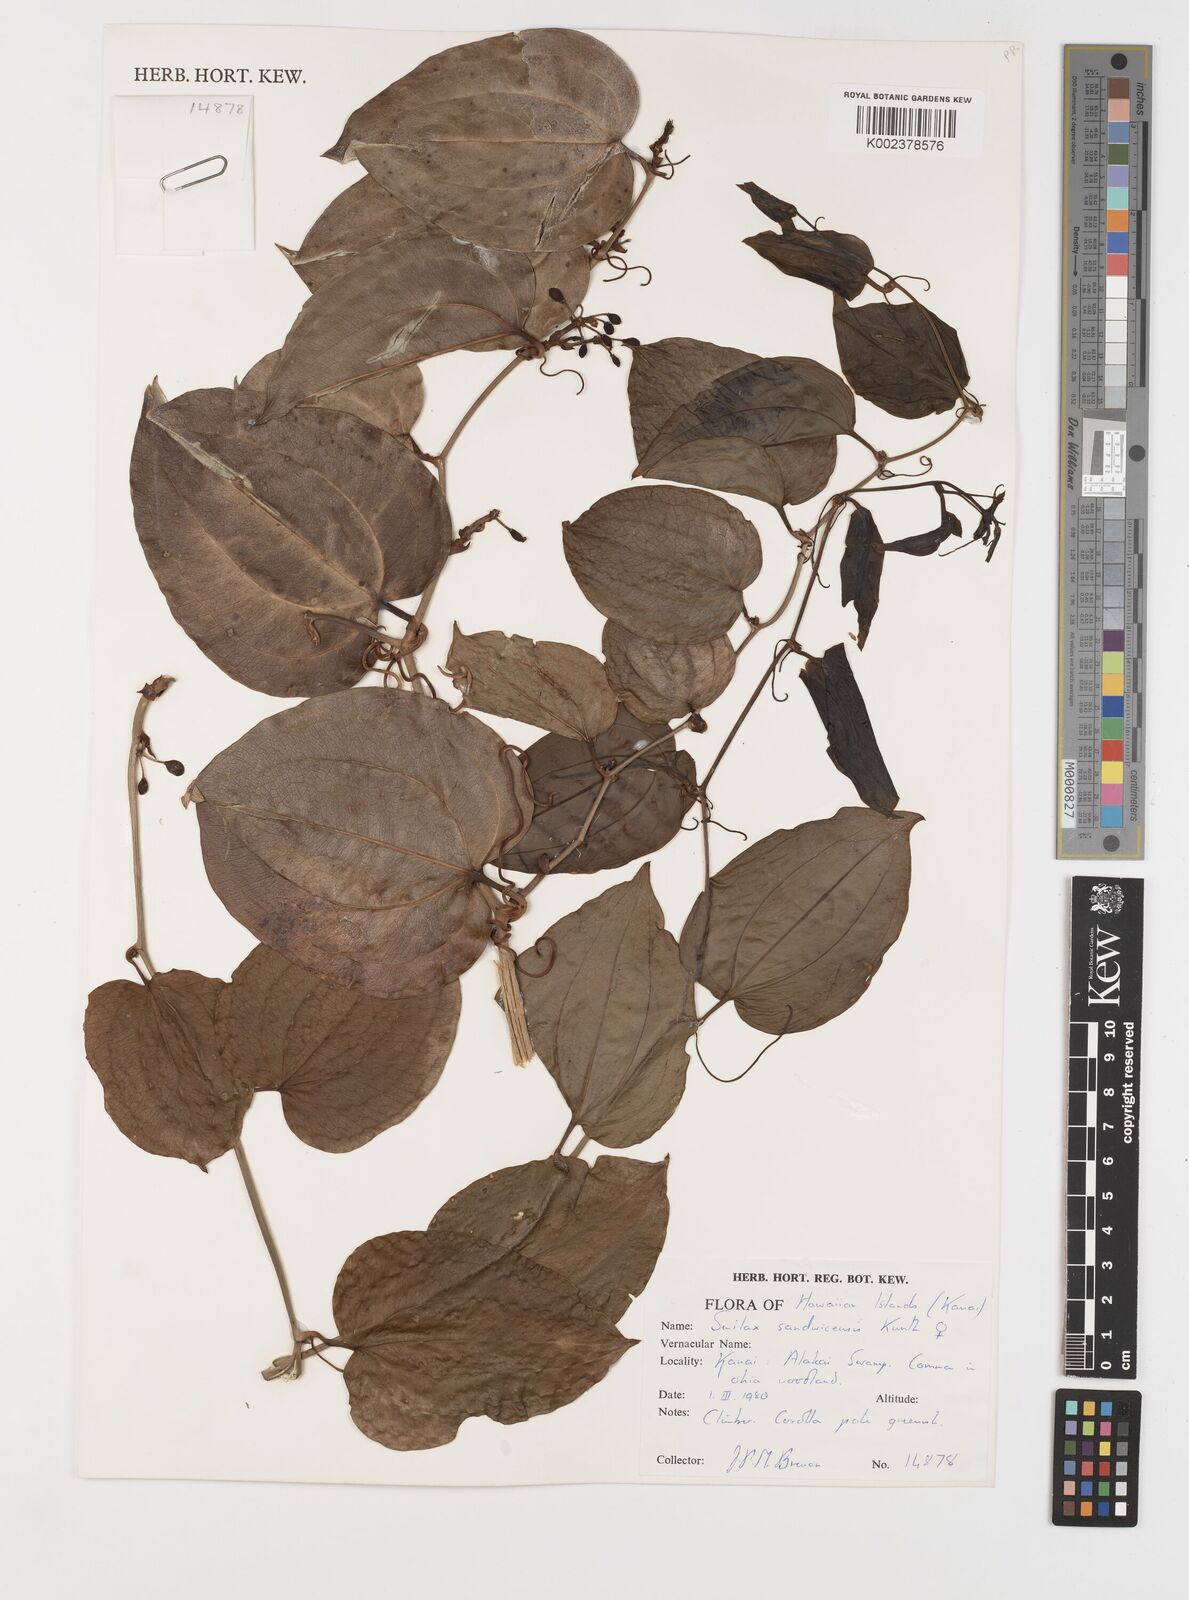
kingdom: Plantae
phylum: Tracheophyta
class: Liliopsida
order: Liliales
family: Smilacaceae
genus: Smilax
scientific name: Smilax melastomifolia
